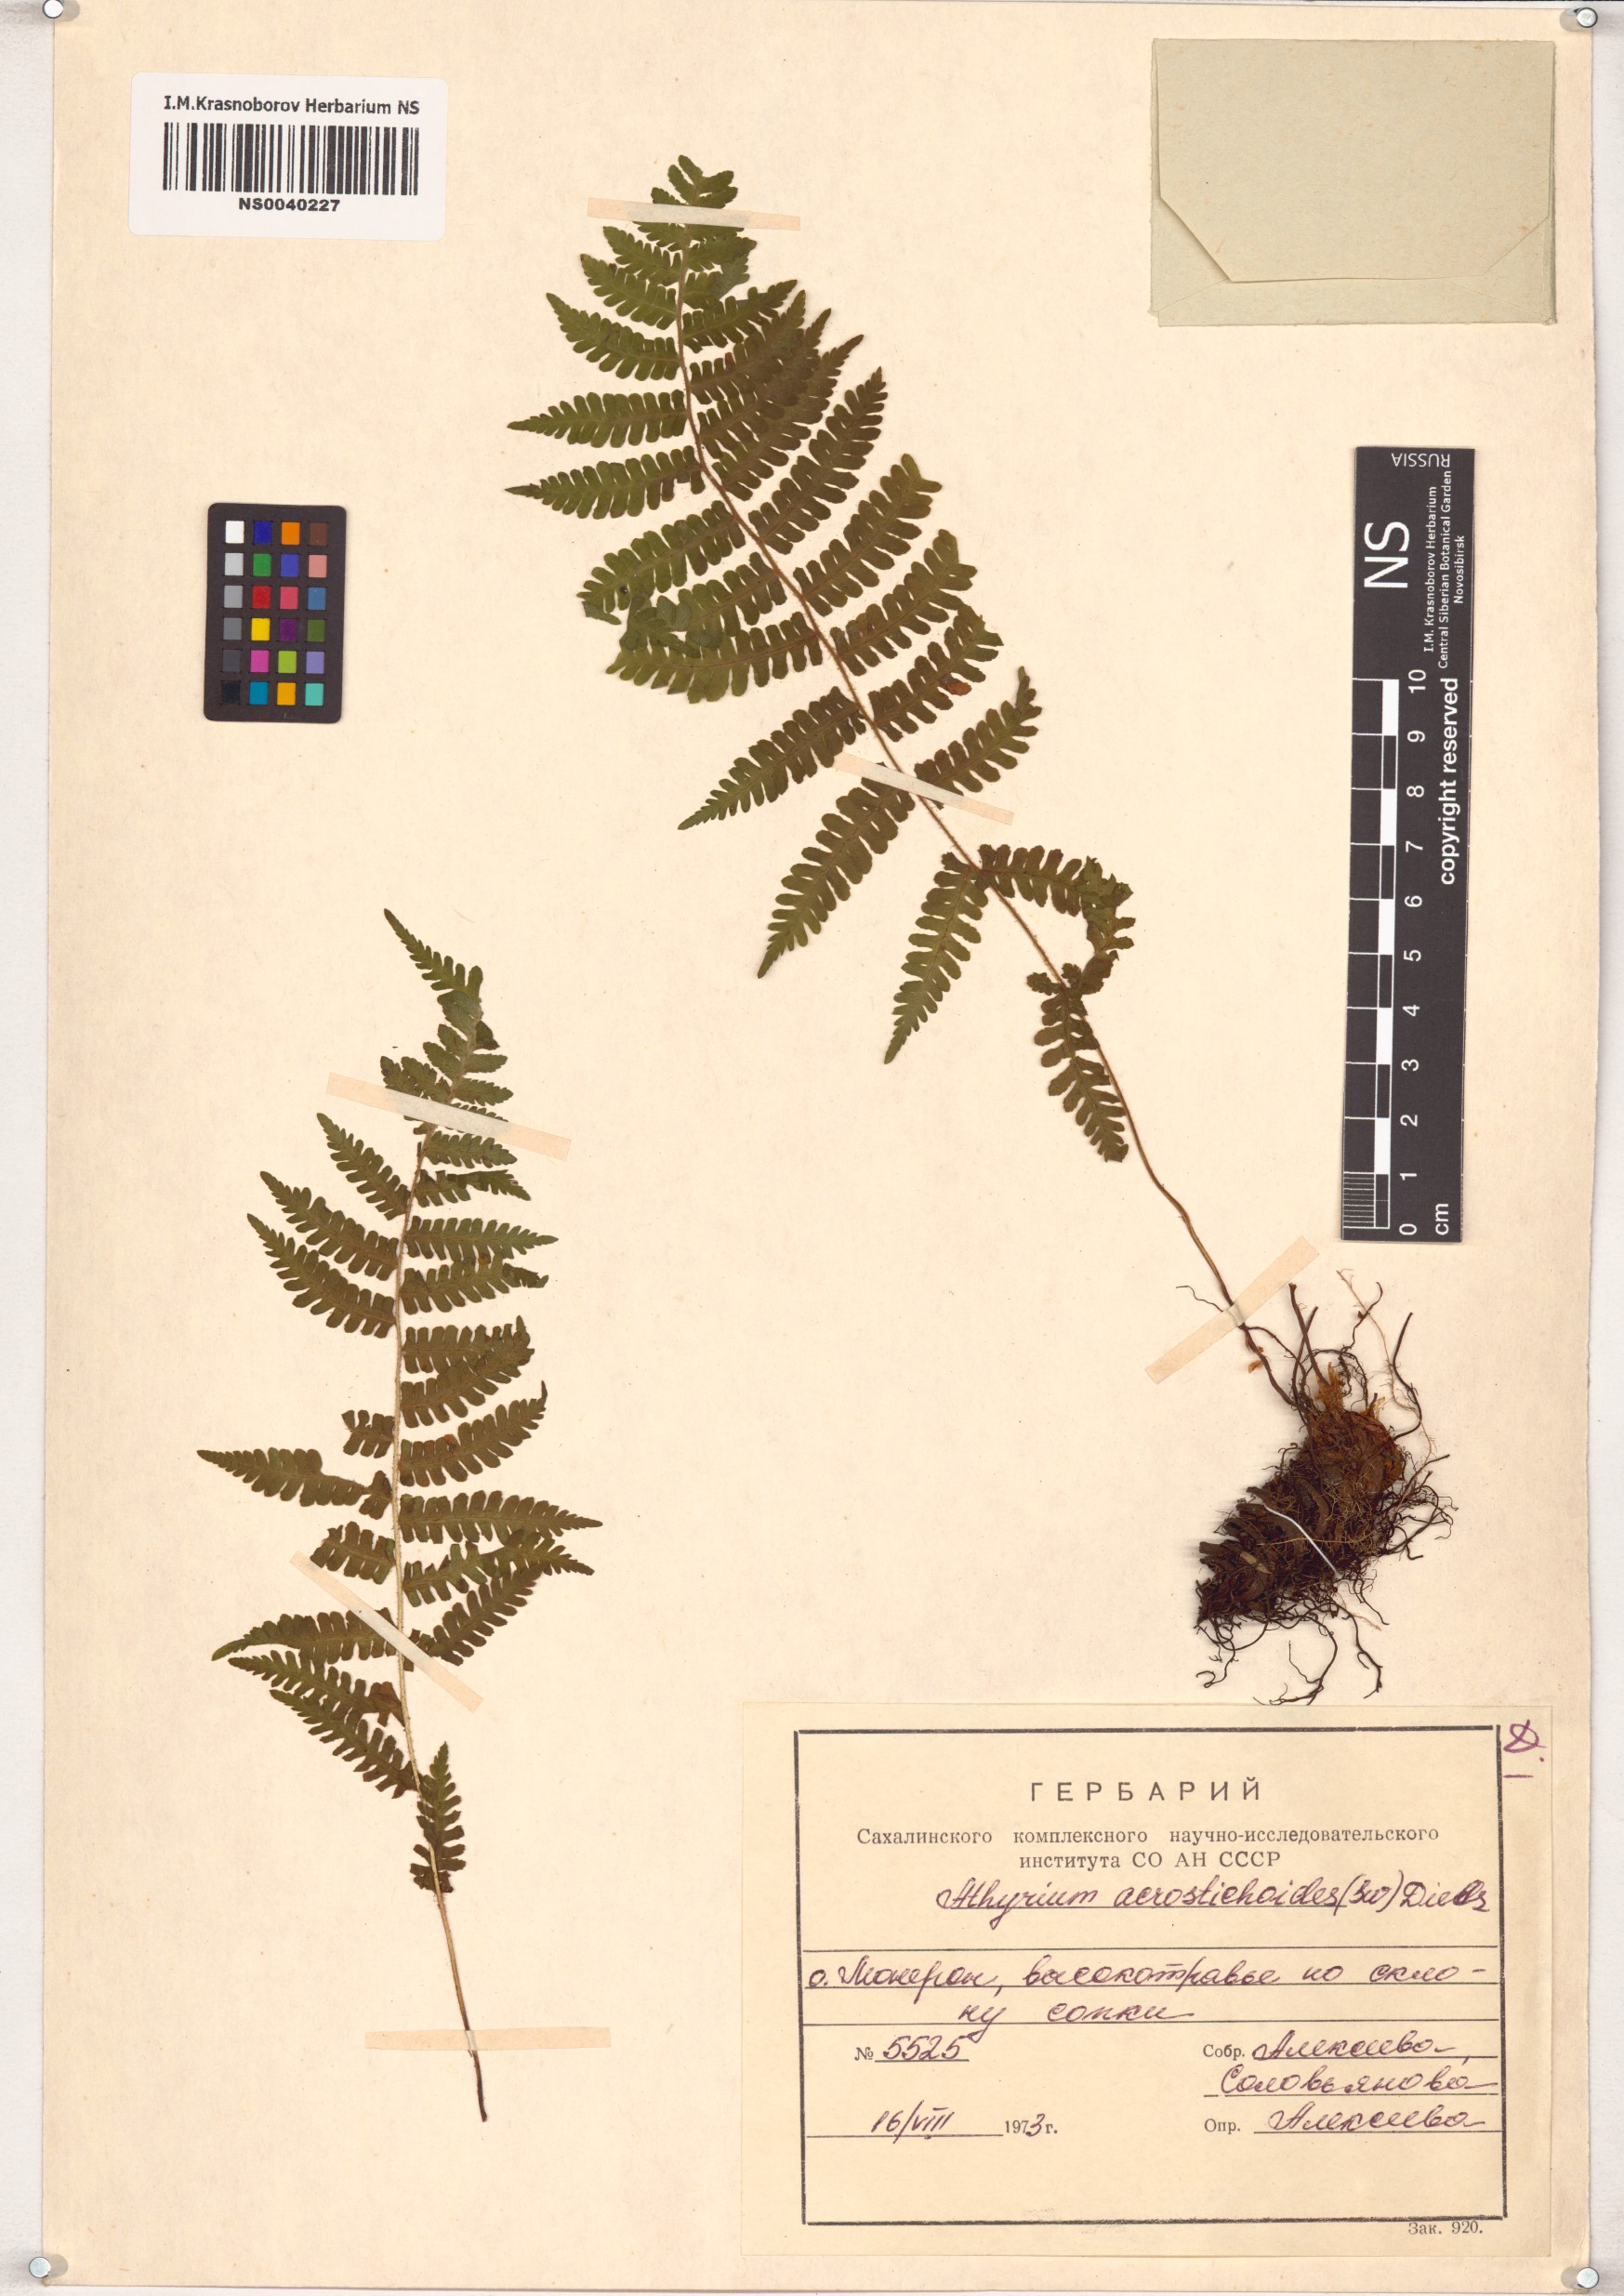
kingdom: Plantae
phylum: Tracheophyta
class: Polypodiopsida
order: Polypodiales
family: Athyriaceae
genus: Deparia
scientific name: Deparia acrostichoides
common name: Silver false spleenwort
